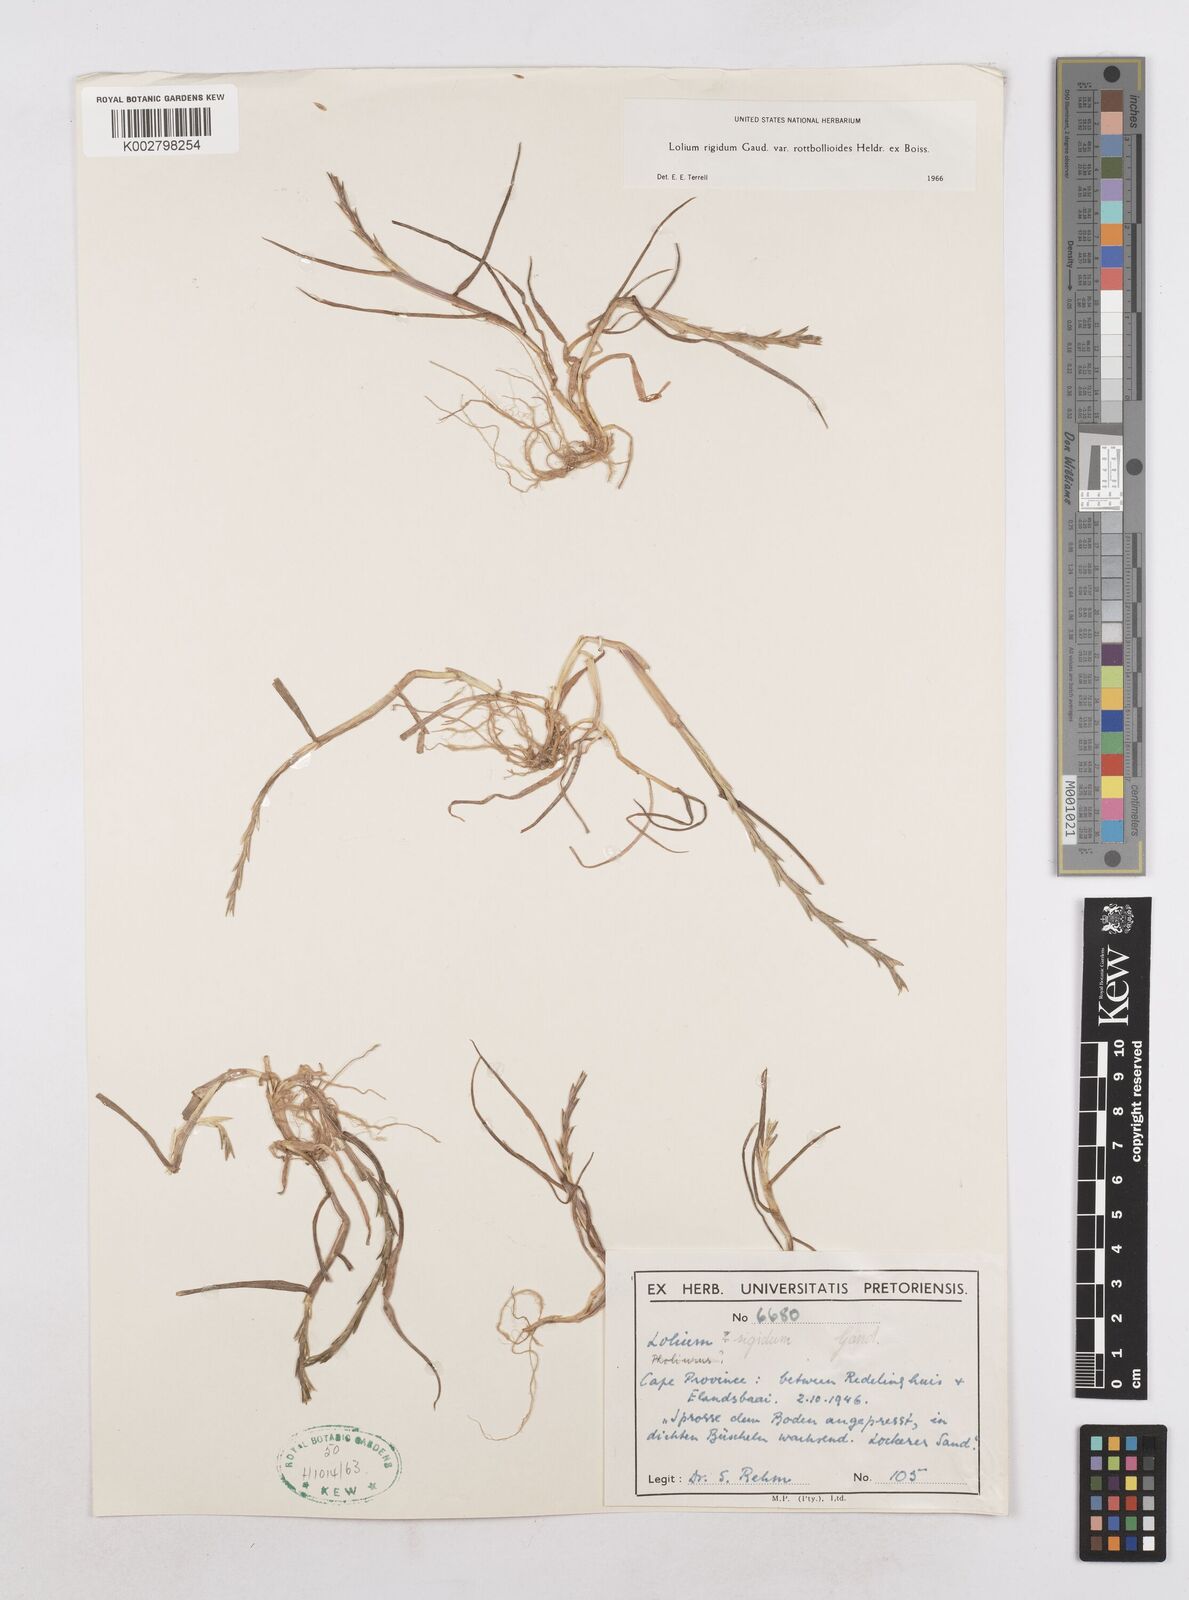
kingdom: Plantae
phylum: Tracheophyta
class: Liliopsida
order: Poales
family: Poaceae
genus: Lolium
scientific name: Lolium rigidum
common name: Wimmera ryegrass
